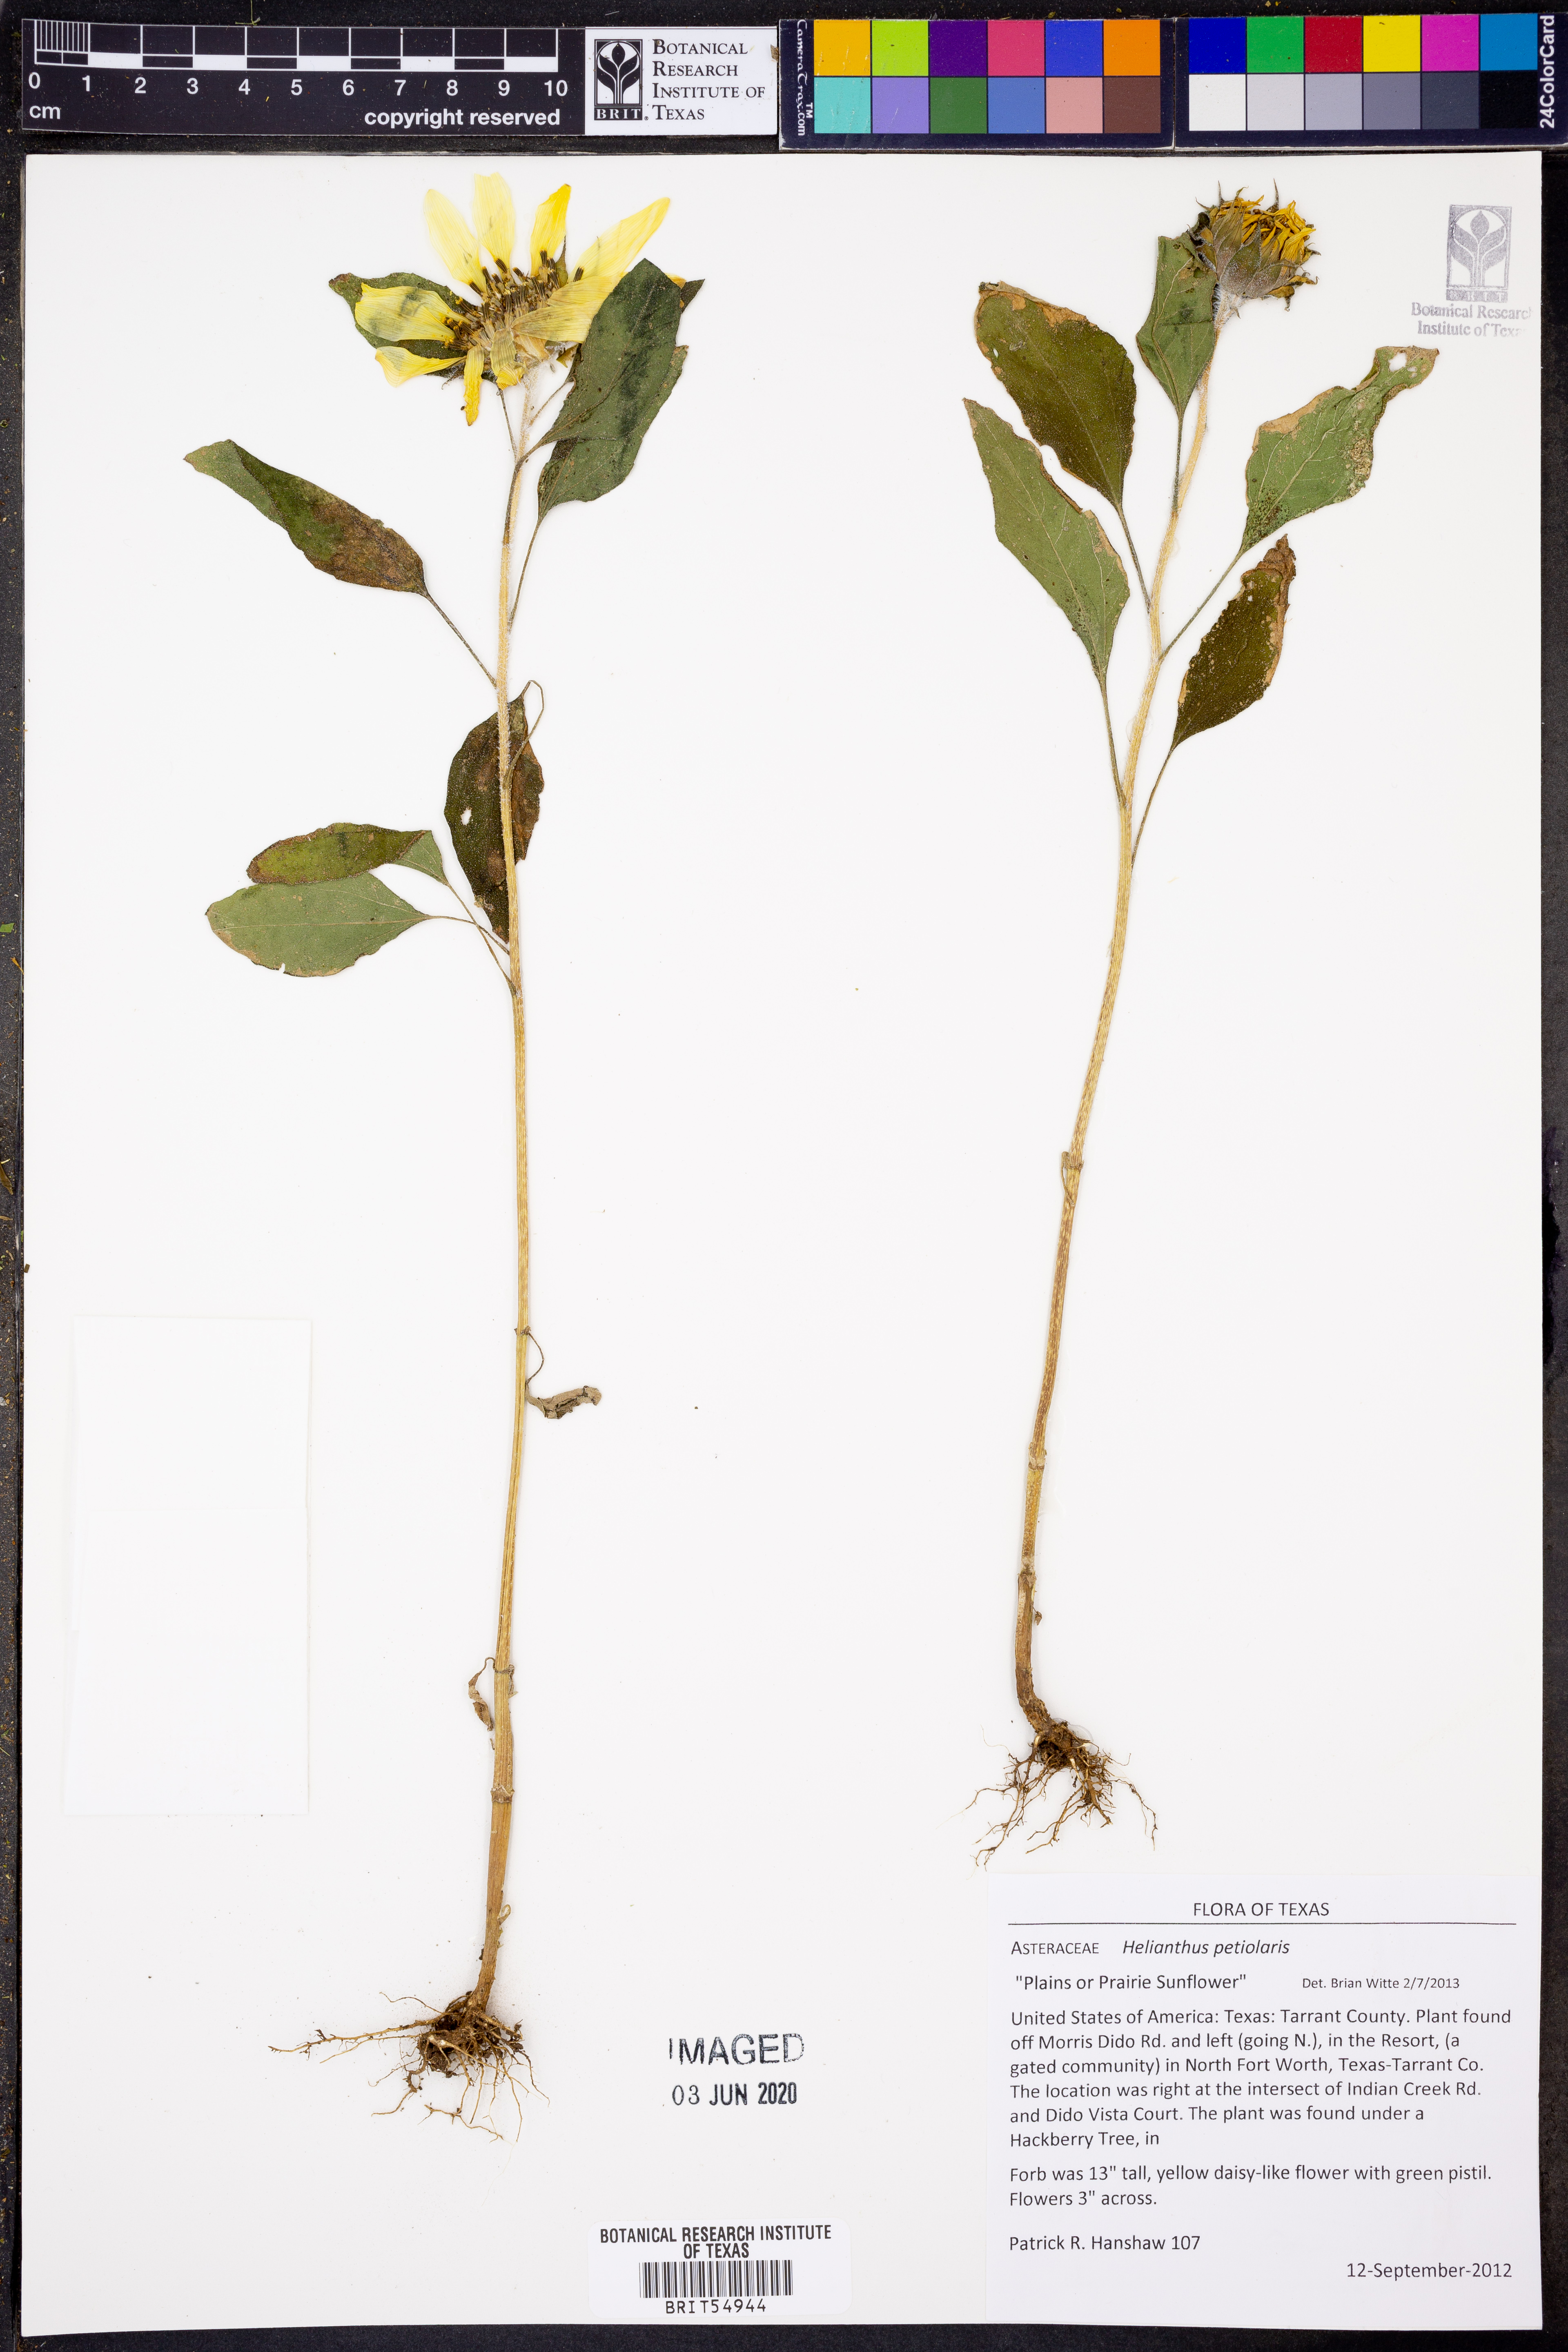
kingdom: Plantae
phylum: Tracheophyta
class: Magnoliopsida
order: Asterales
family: Asteraceae
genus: Helianthus
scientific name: Helianthus petiolaris
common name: Lesser sunflower
